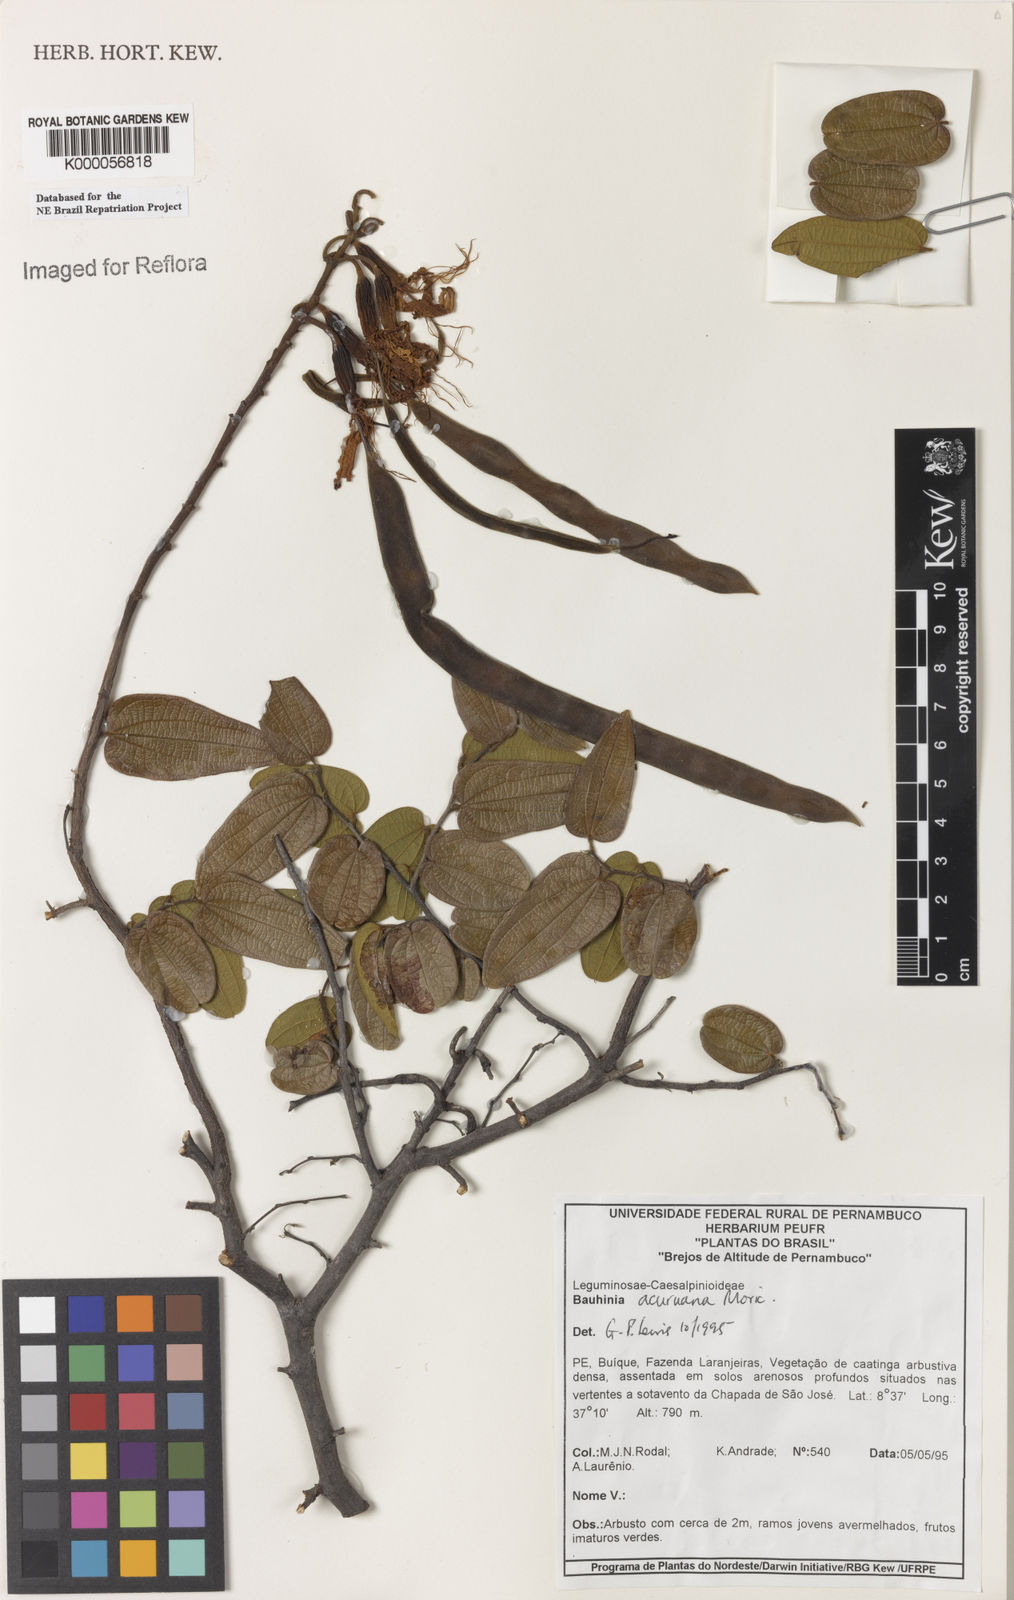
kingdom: Plantae
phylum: Tracheophyta
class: Magnoliopsida
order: Fabales
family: Fabaceae
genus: Bauhinia
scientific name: Bauhinia acuruana
